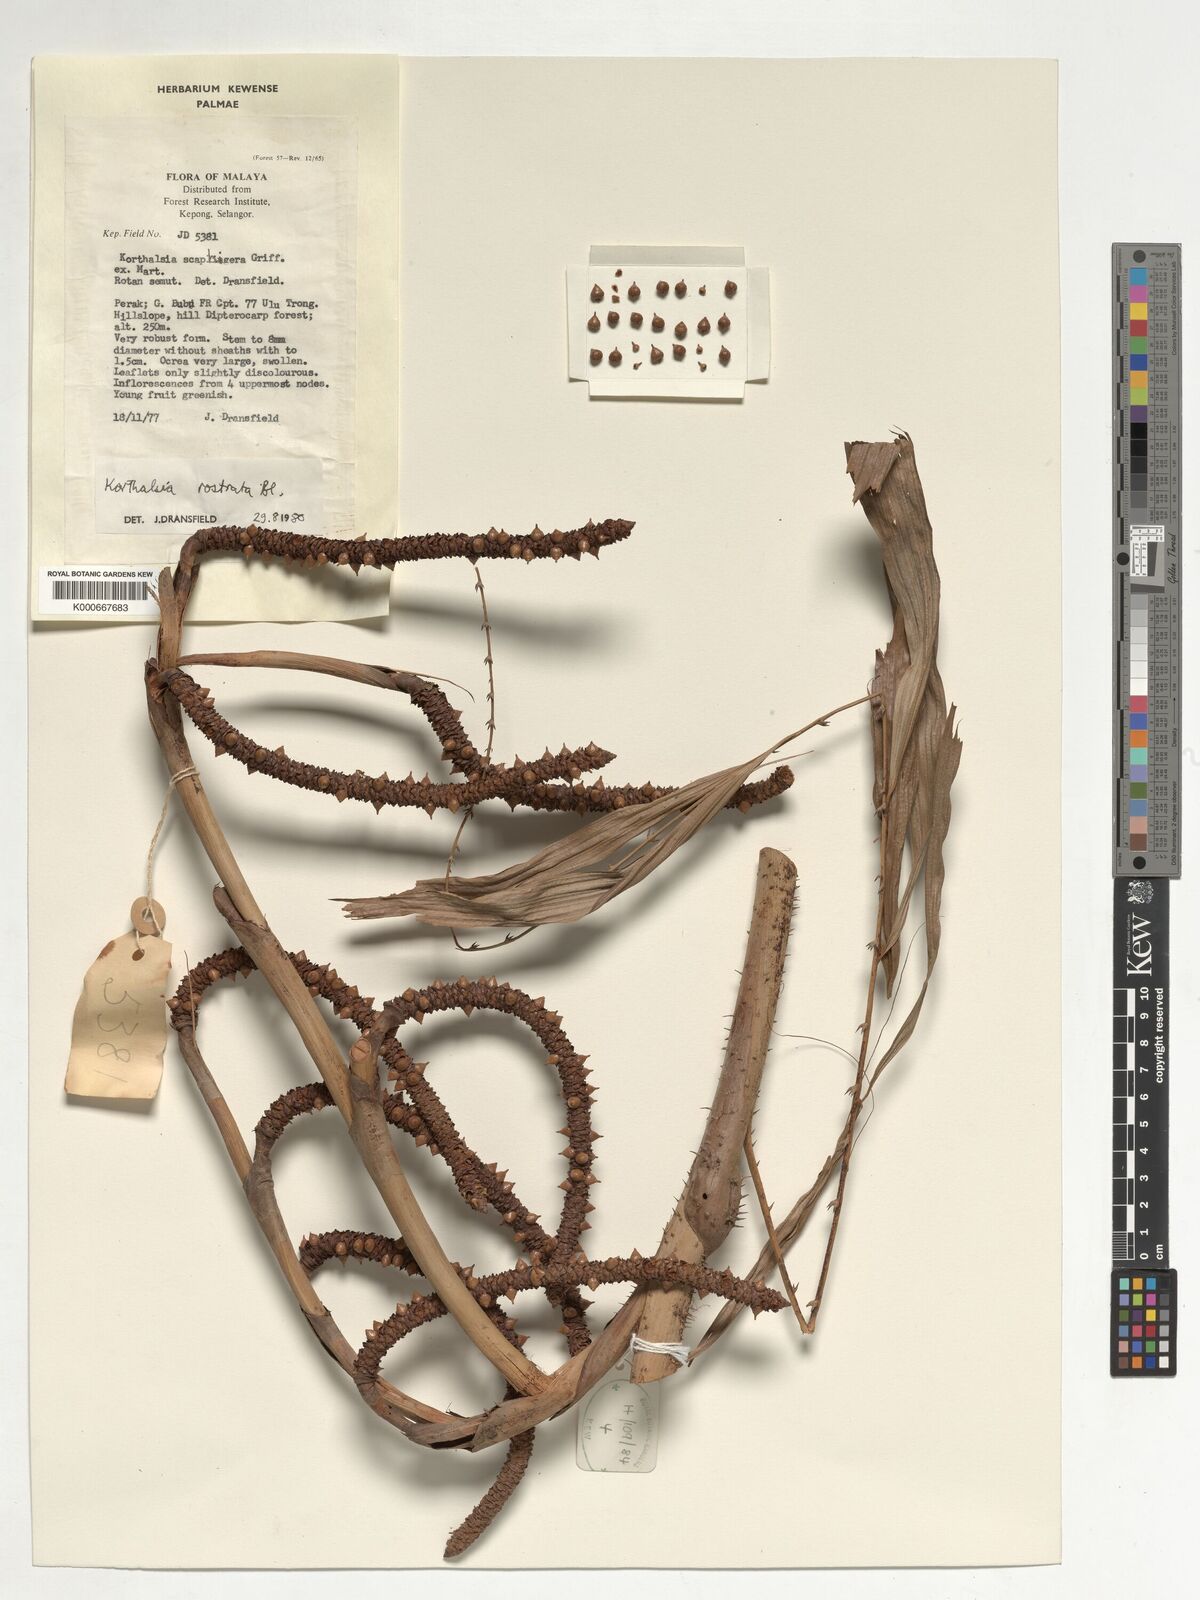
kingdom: Plantae
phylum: Tracheophyta
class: Liliopsida
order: Arecales
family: Arecaceae
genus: Korthalsia
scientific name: Korthalsia rostrata
